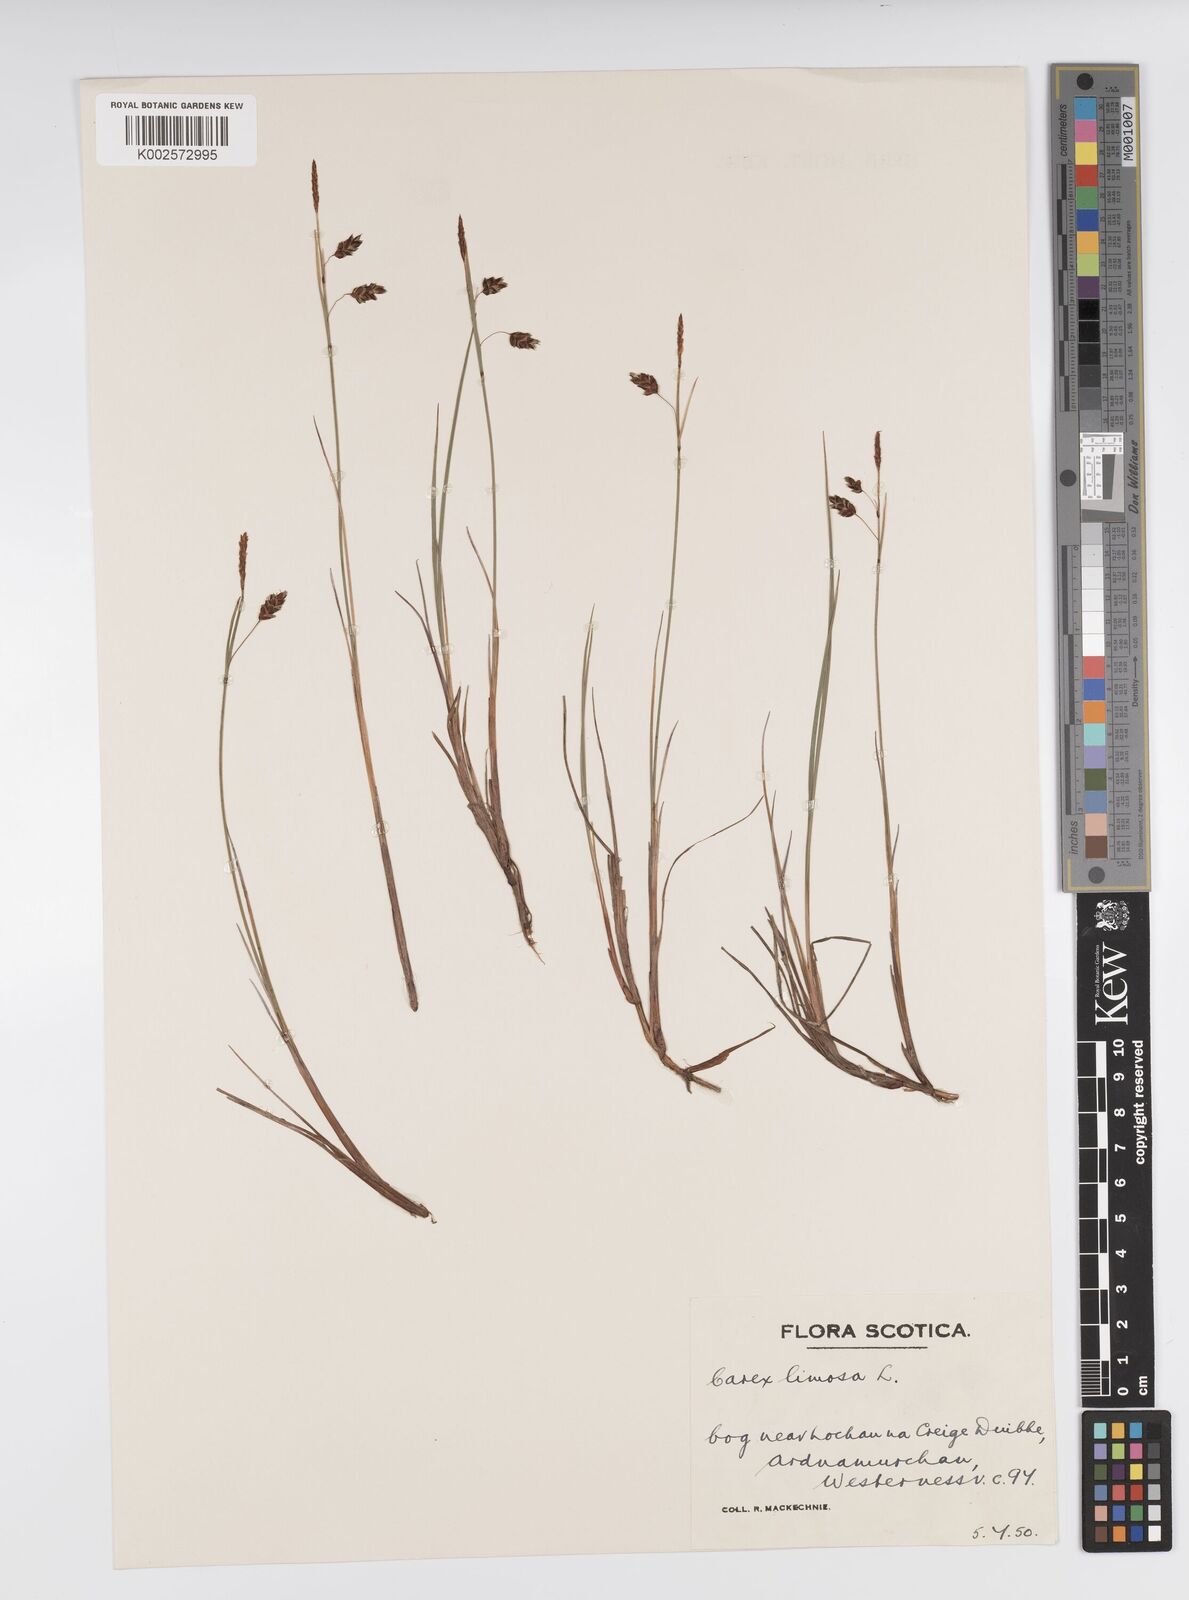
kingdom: Plantae
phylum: Tracheophyta
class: Liliopsida
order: Poales
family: Cyperaceae
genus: Carex
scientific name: Carex limosa
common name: Bog sedge
